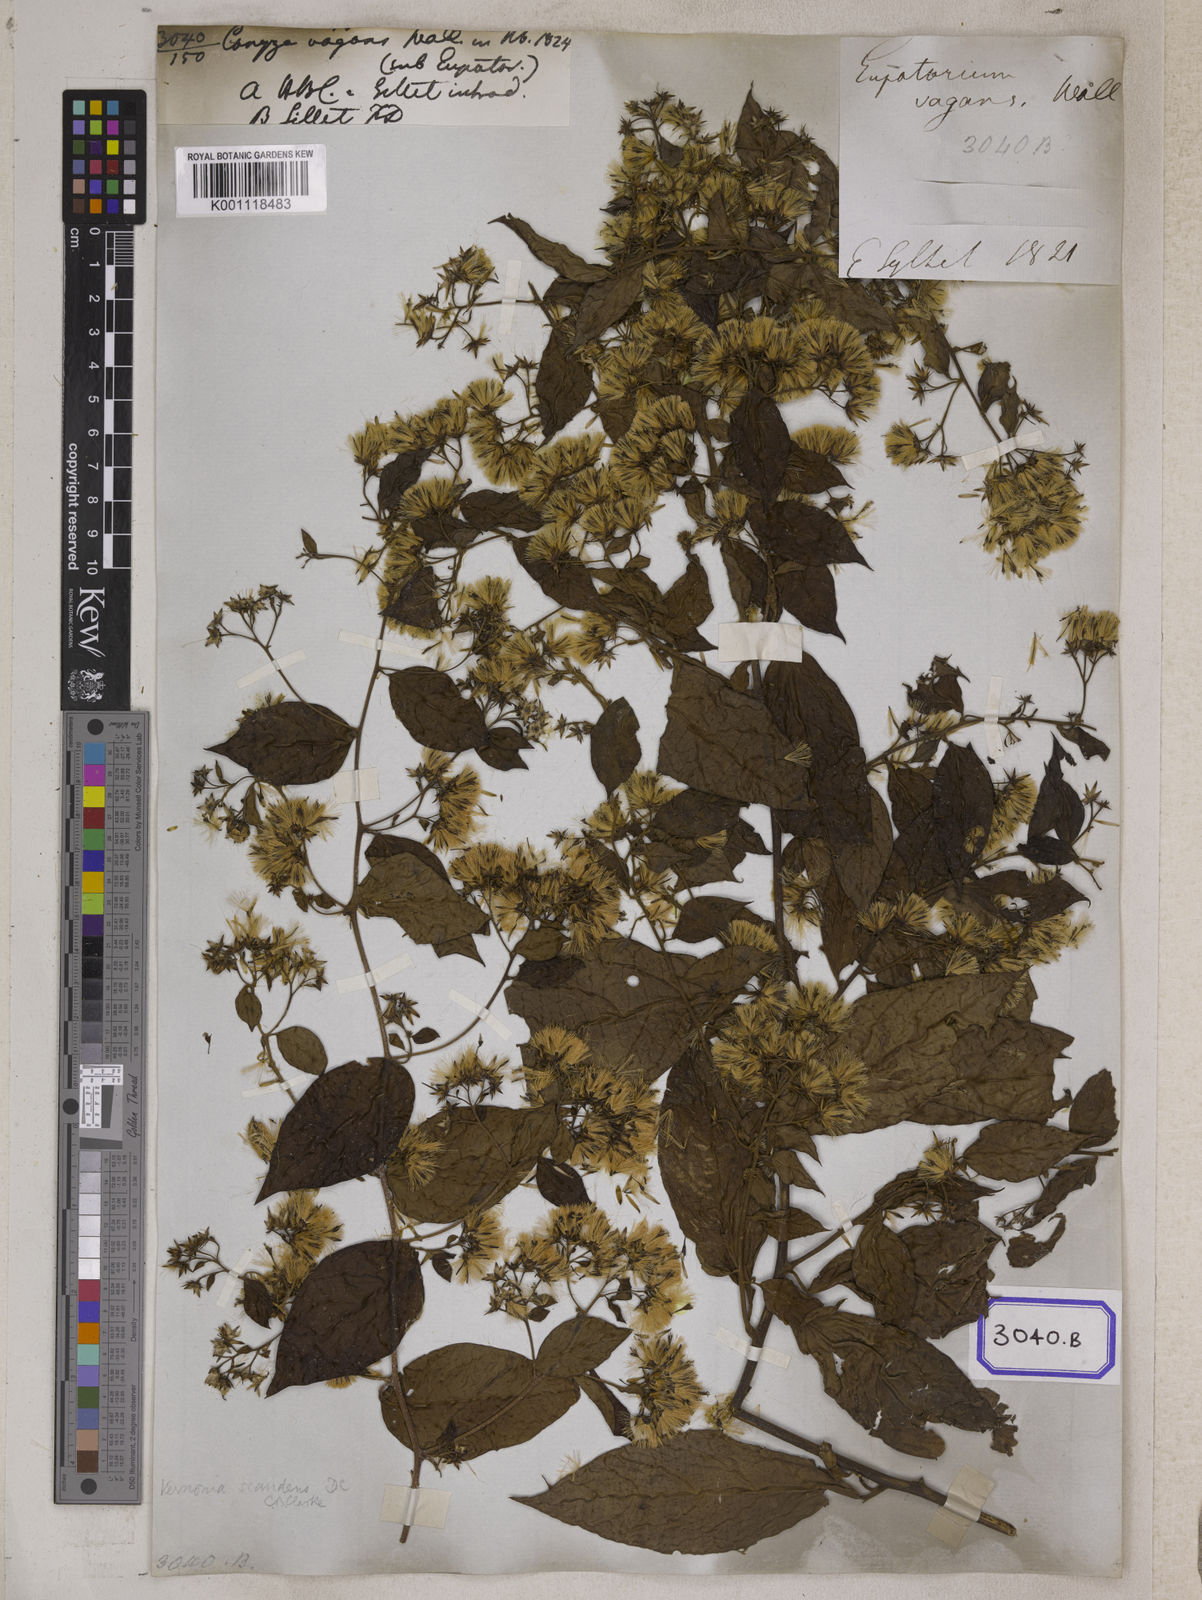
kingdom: Plantae
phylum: Tracheophyta
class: Magnoliopsida
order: Asterales
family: Asteraceae
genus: Decaneuropsis
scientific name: Decaneuropsis vagans
